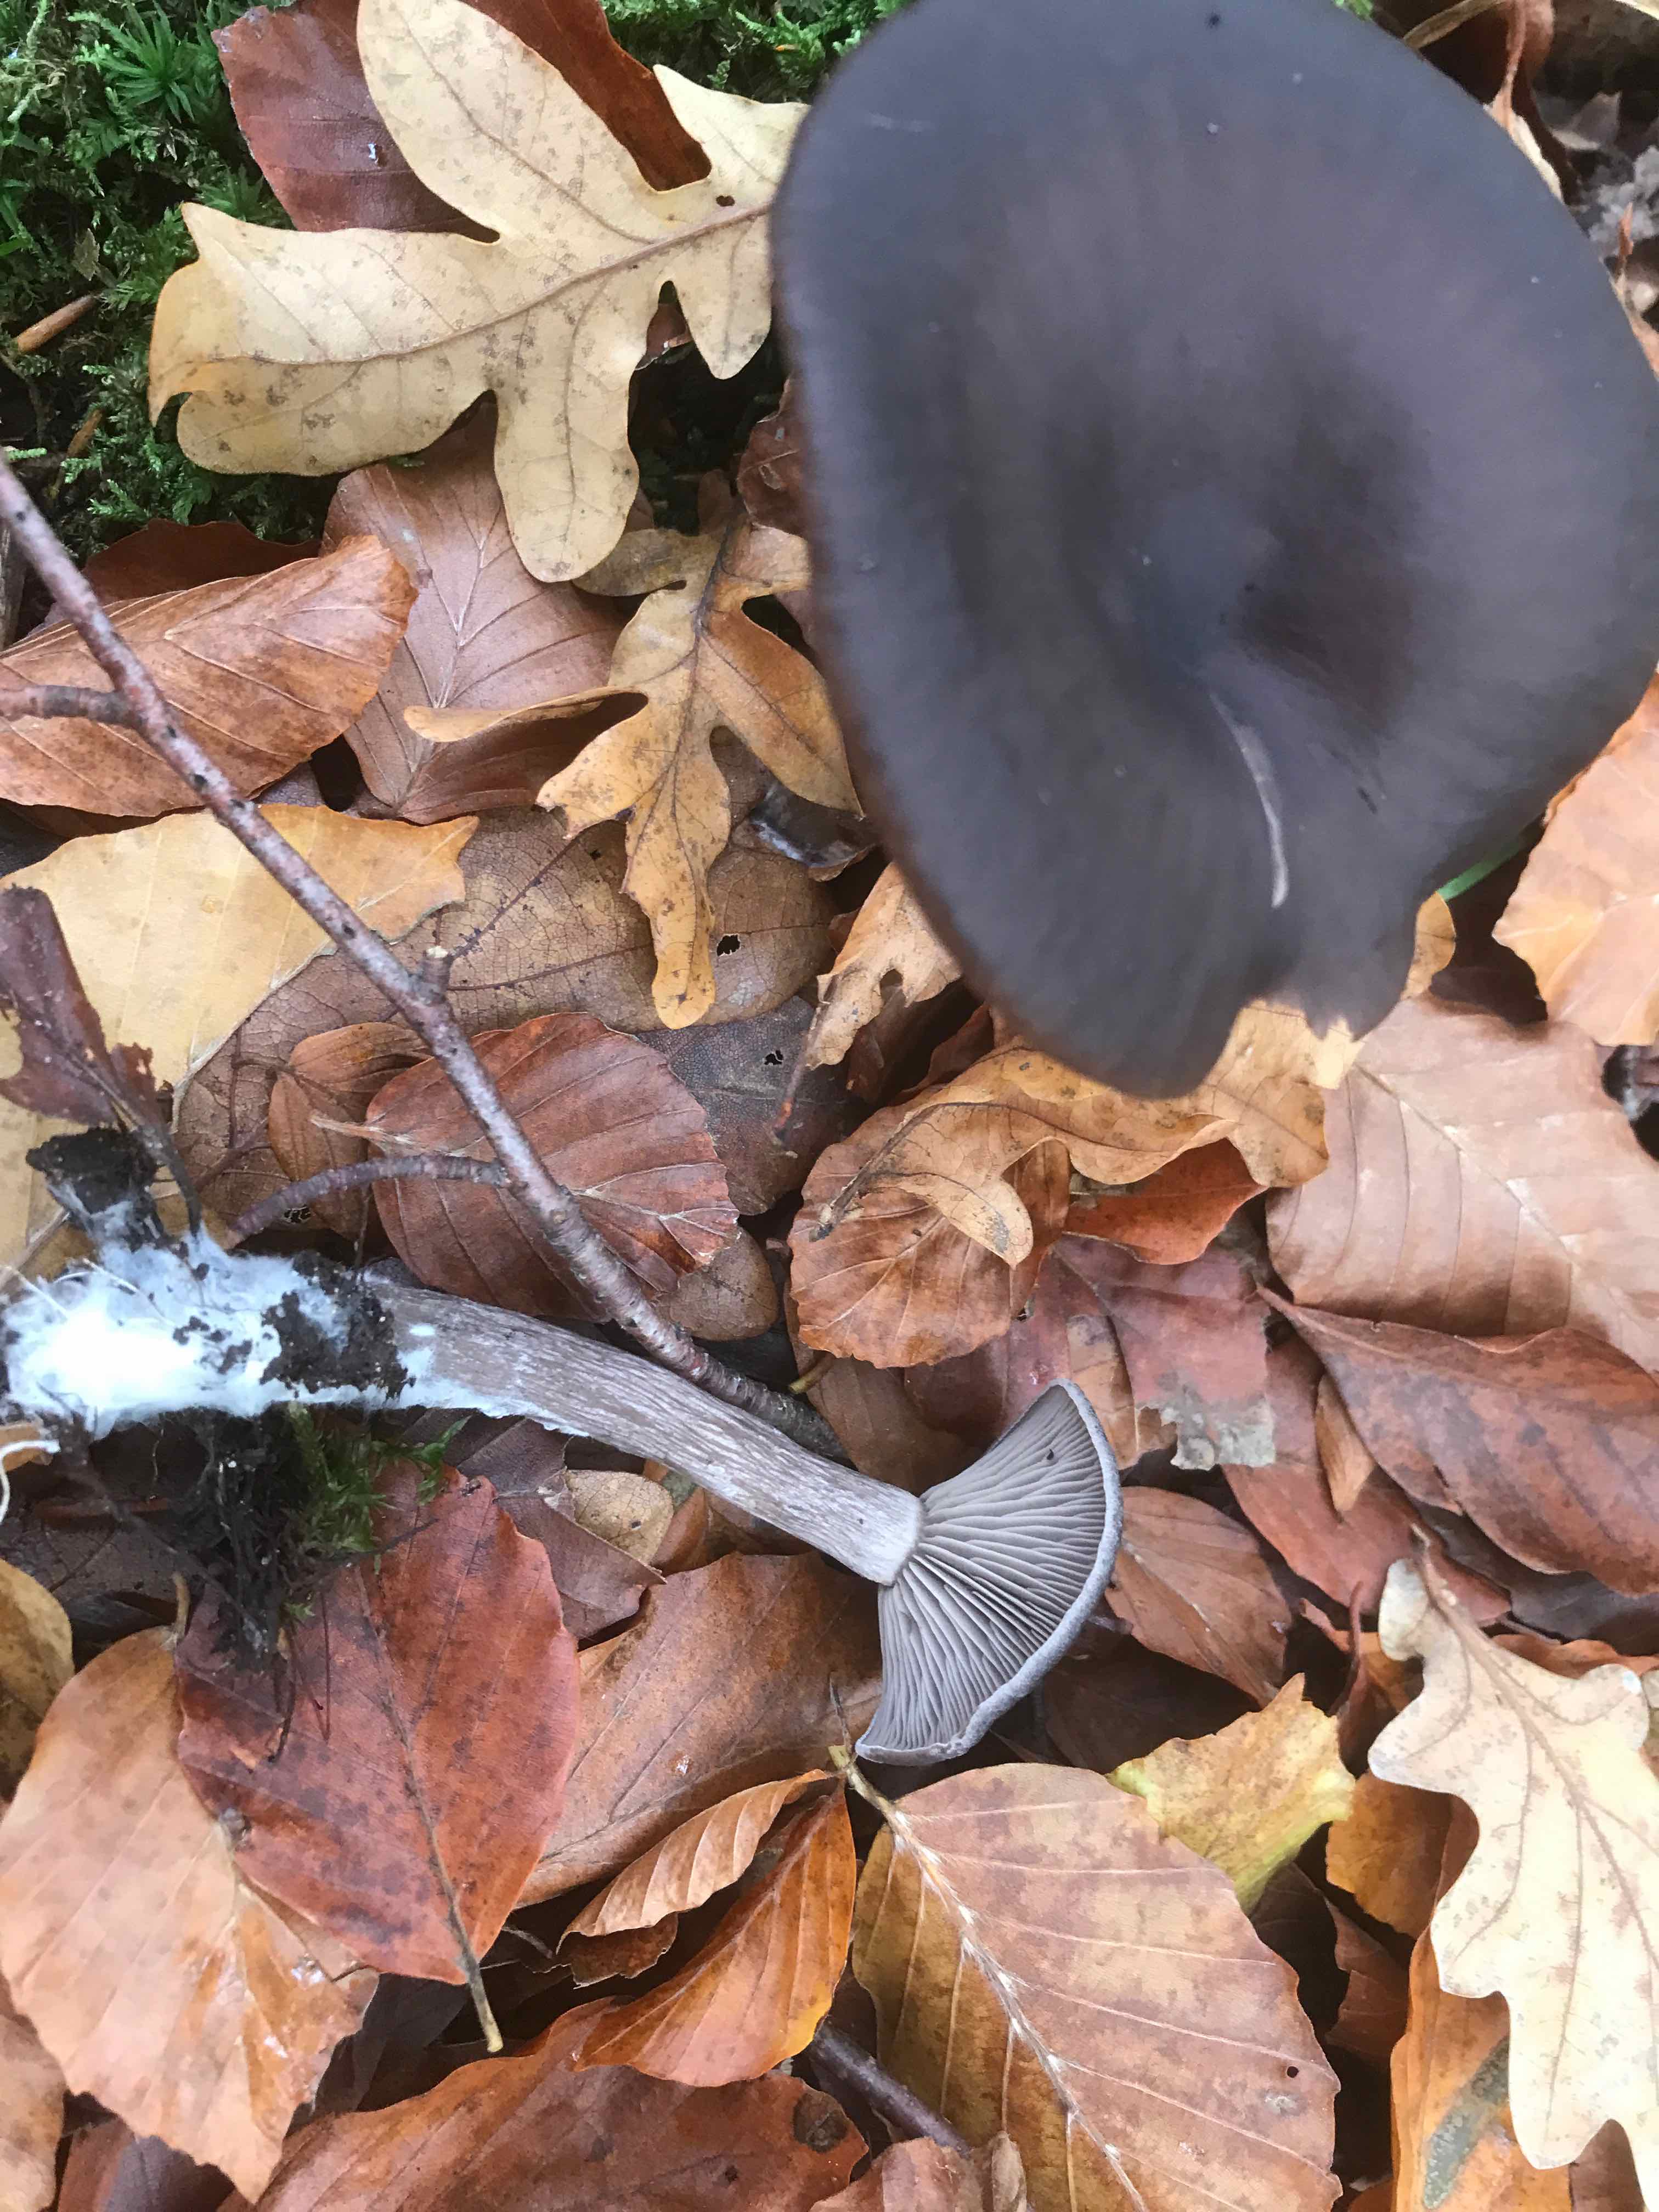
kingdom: Fungi
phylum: Basidiomycota
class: Agaricomycetes
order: Agaricales
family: Pseudoclitocybaceae
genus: Pseudoclitocybe
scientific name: Pseudoclitocybe cyathiformis
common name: almindelig bægertragthat
